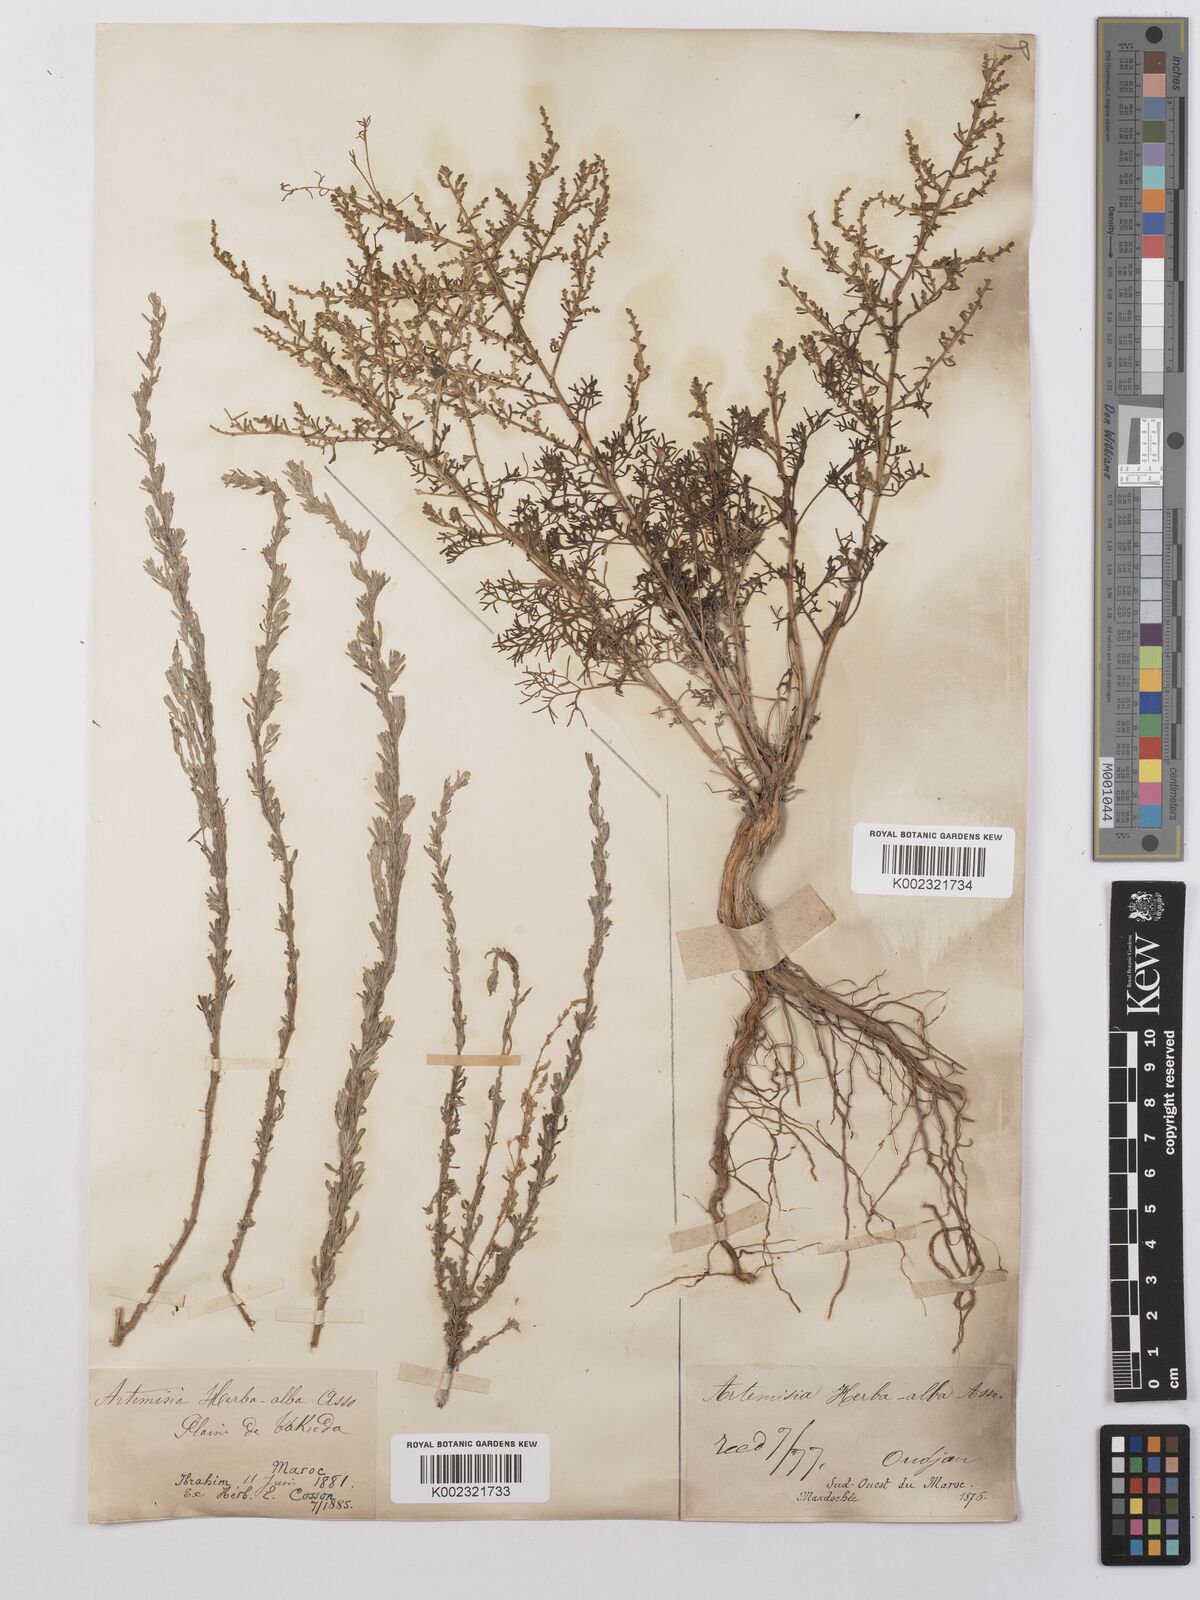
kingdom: Plantae
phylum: Tracheophyta
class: Magnoliopsida
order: Asterales
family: Asteraceae
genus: Artemisia
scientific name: Artemisia herba-alba
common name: White wormwood
